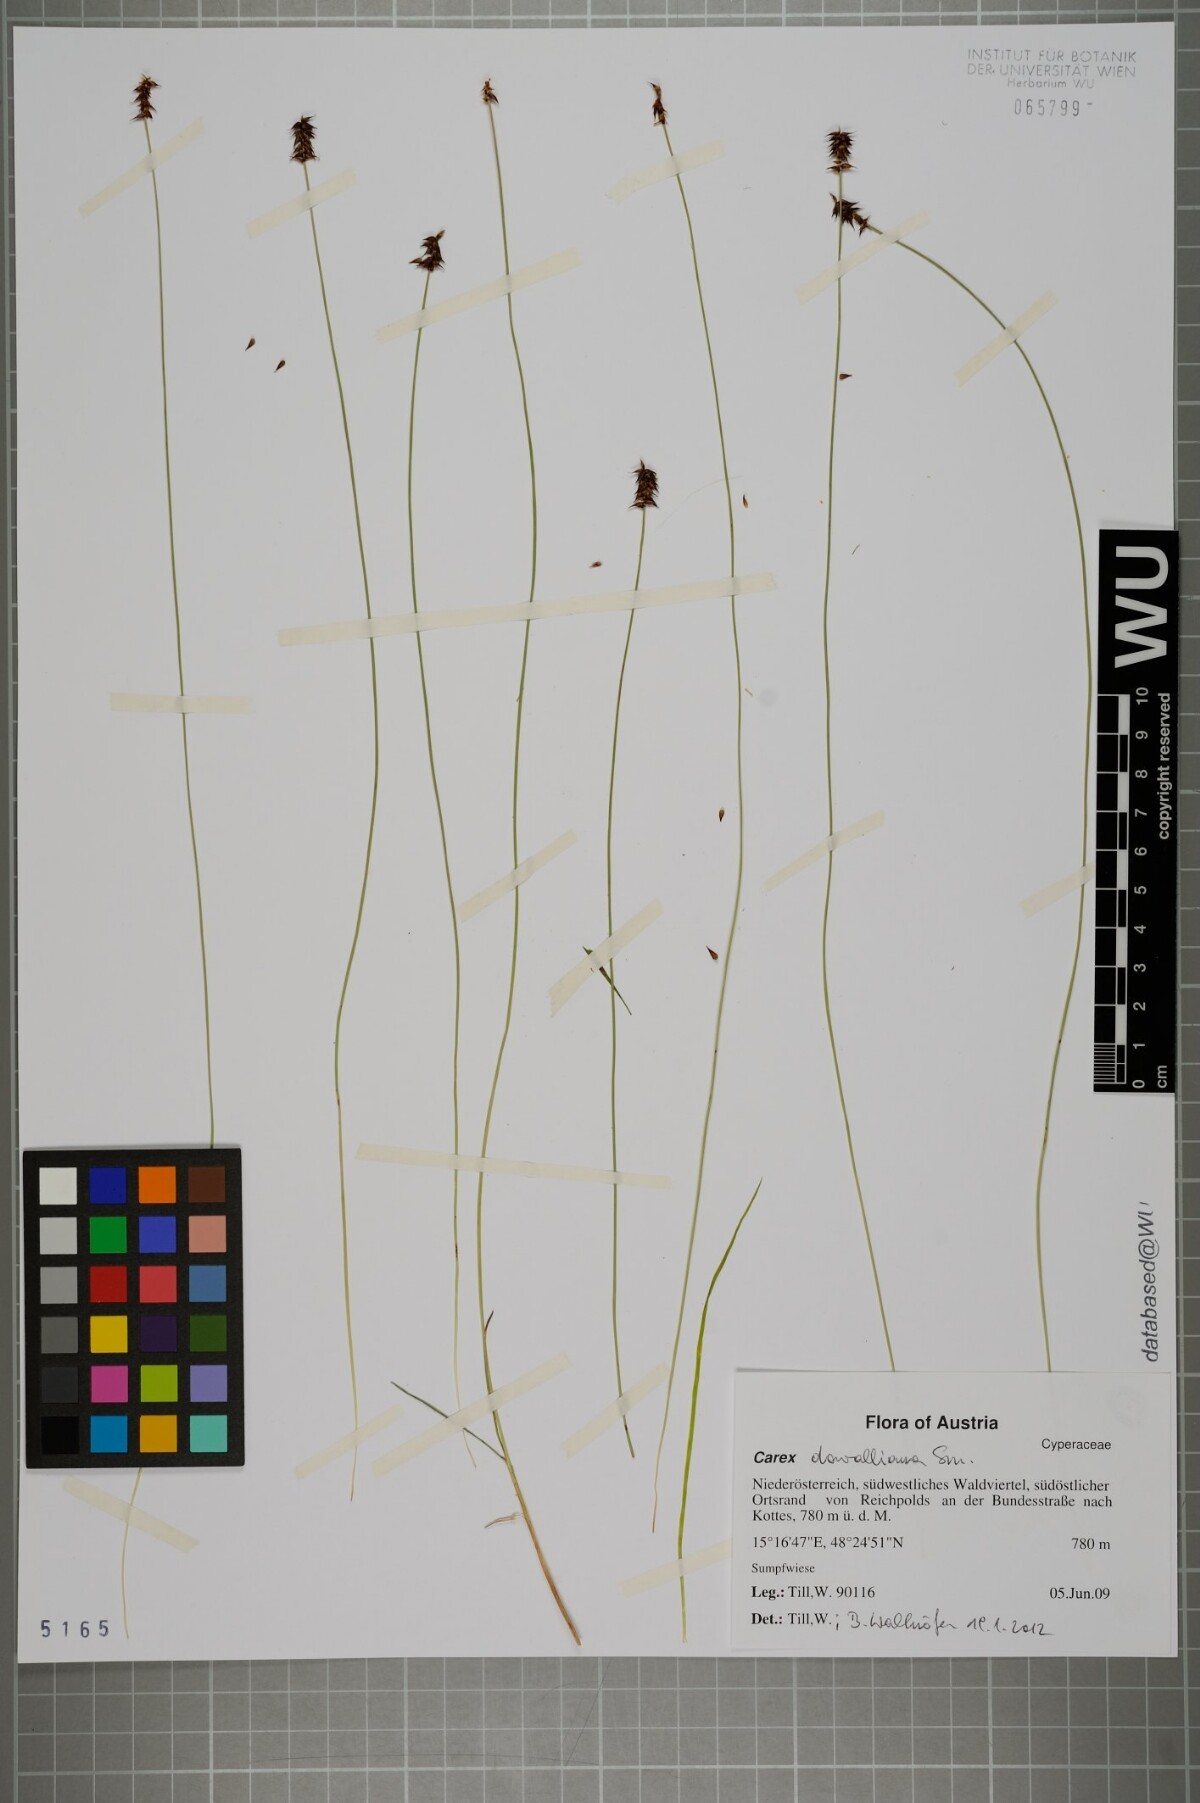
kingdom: Plantae
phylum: Tracheophyta
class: Liliopsida
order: Poales
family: Cyperaceae
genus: Carex
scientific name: Carex davalliana
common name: Davall's sedge
